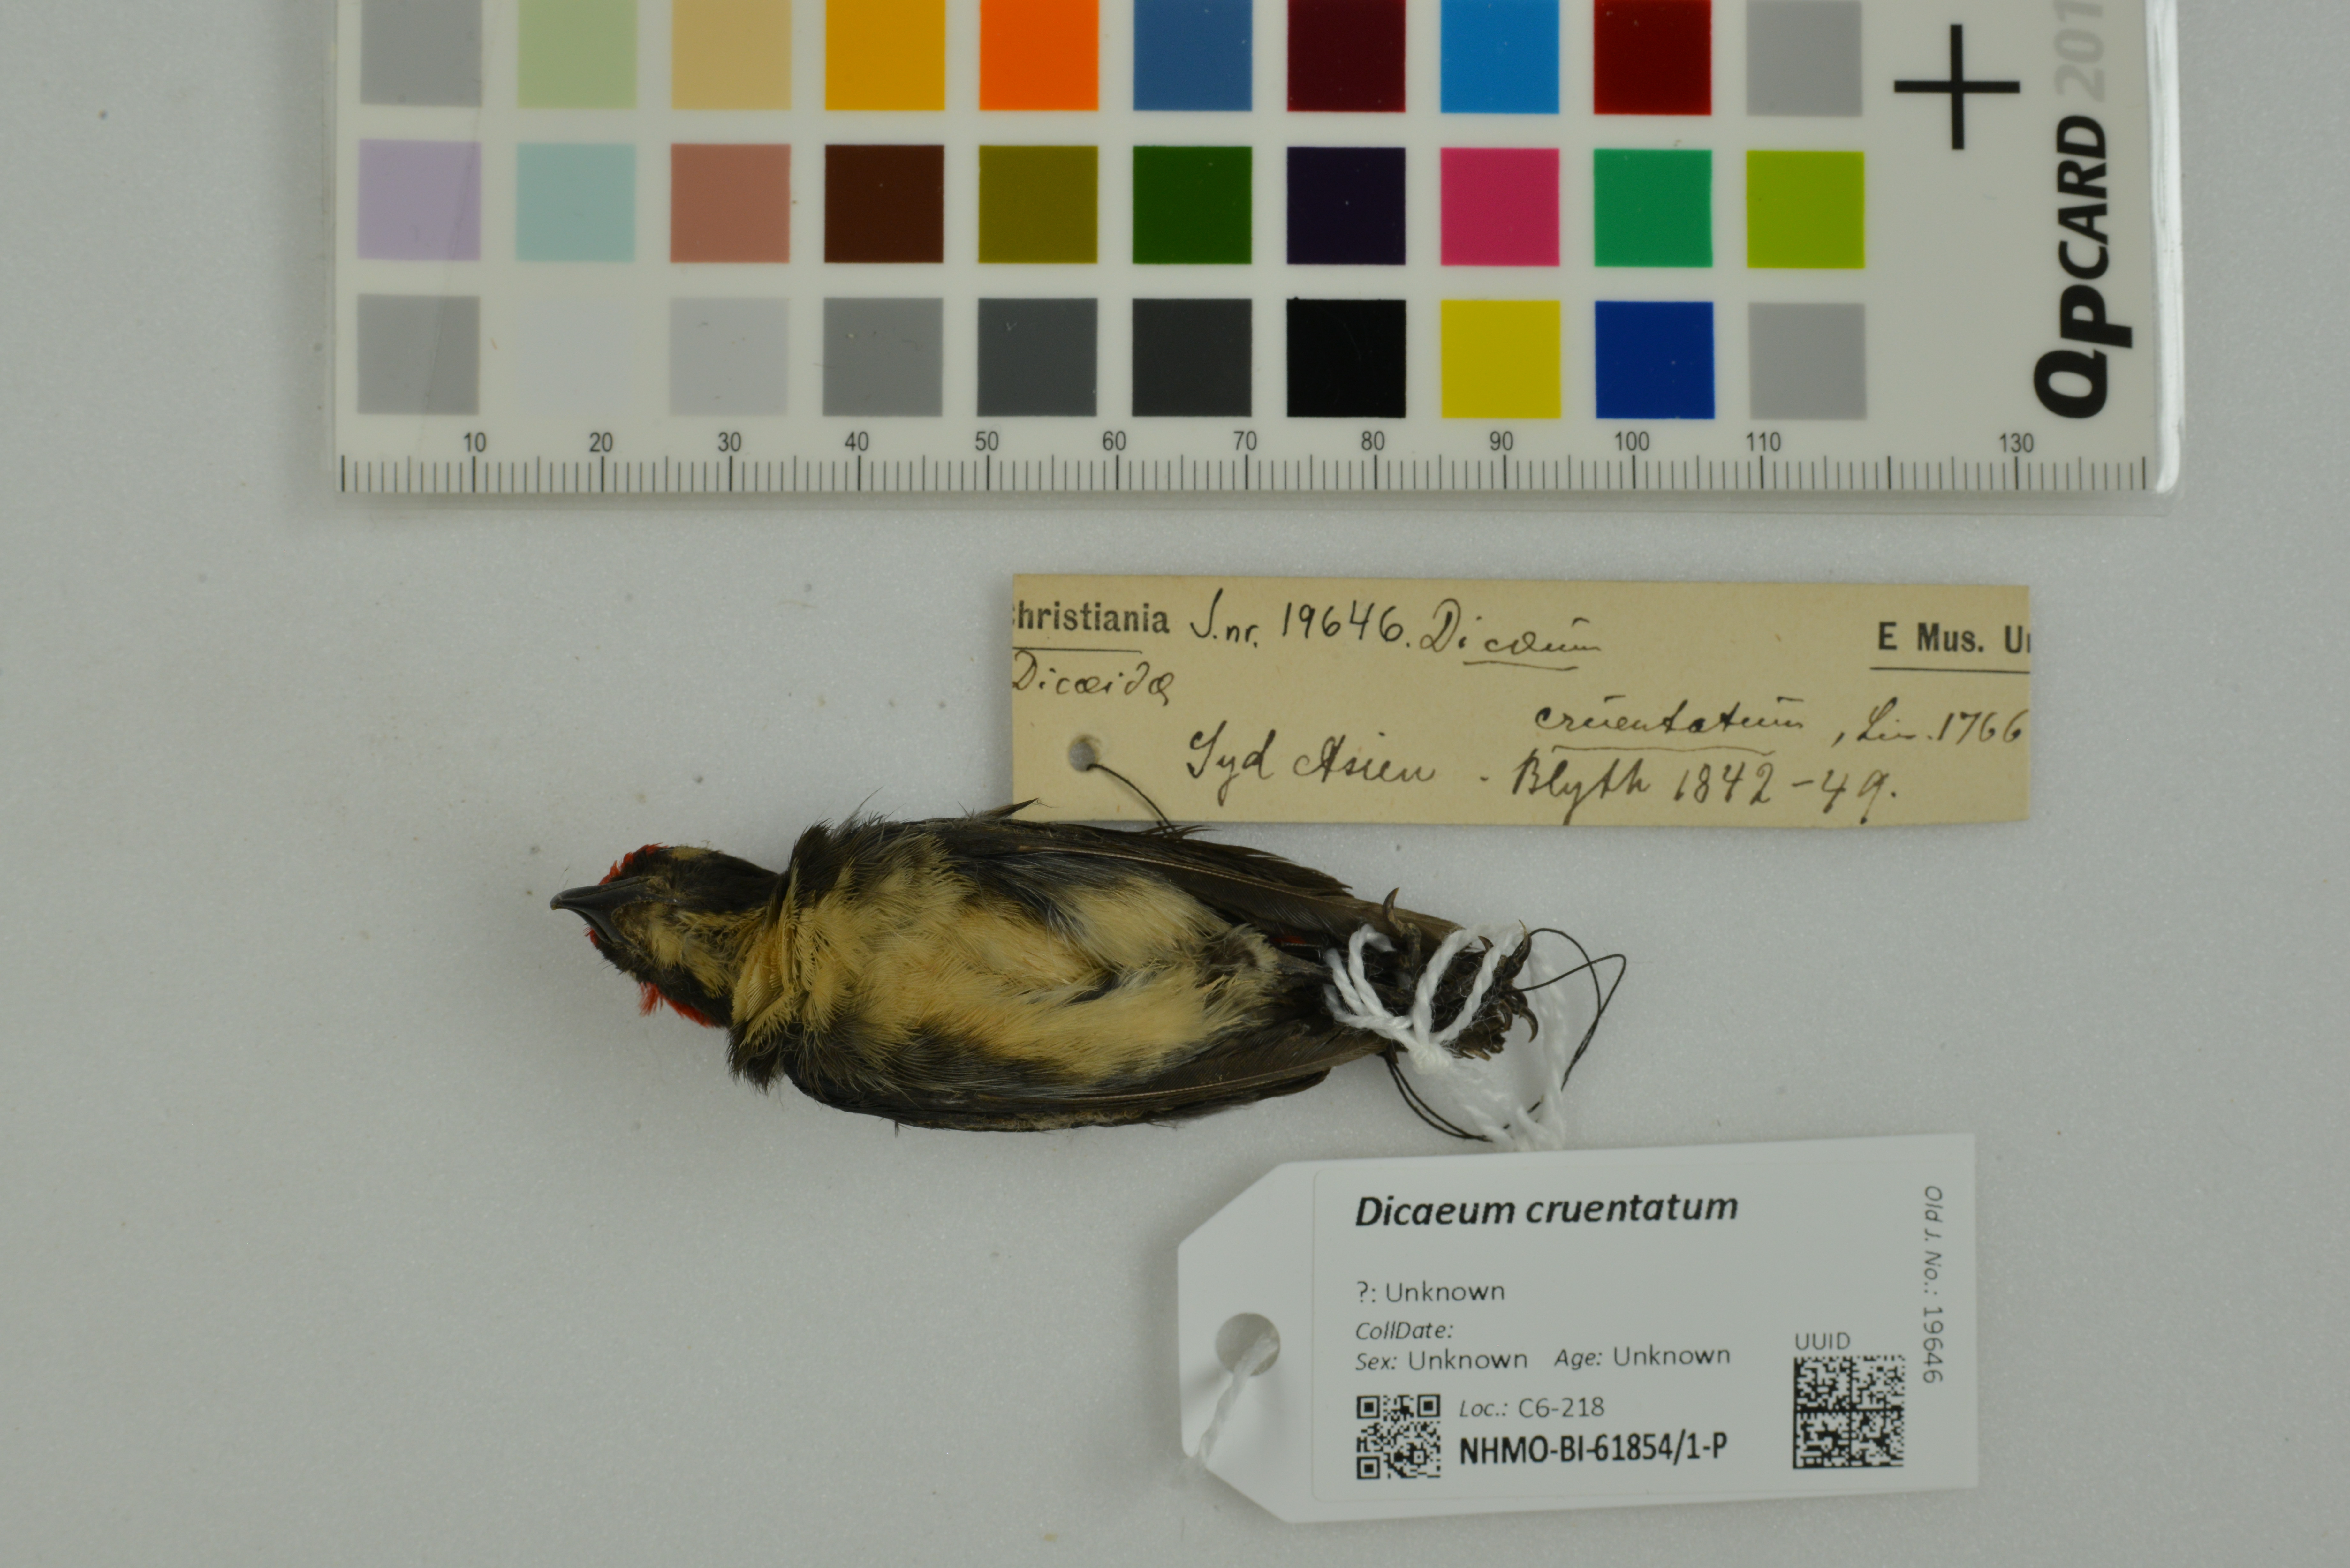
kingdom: Animalia
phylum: Chordata
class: Aves
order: Passeriformes
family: Dicaeidae
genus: Dicaeum
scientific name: Dicaeum cruentatum
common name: Scarlet-backed flowerpecker
